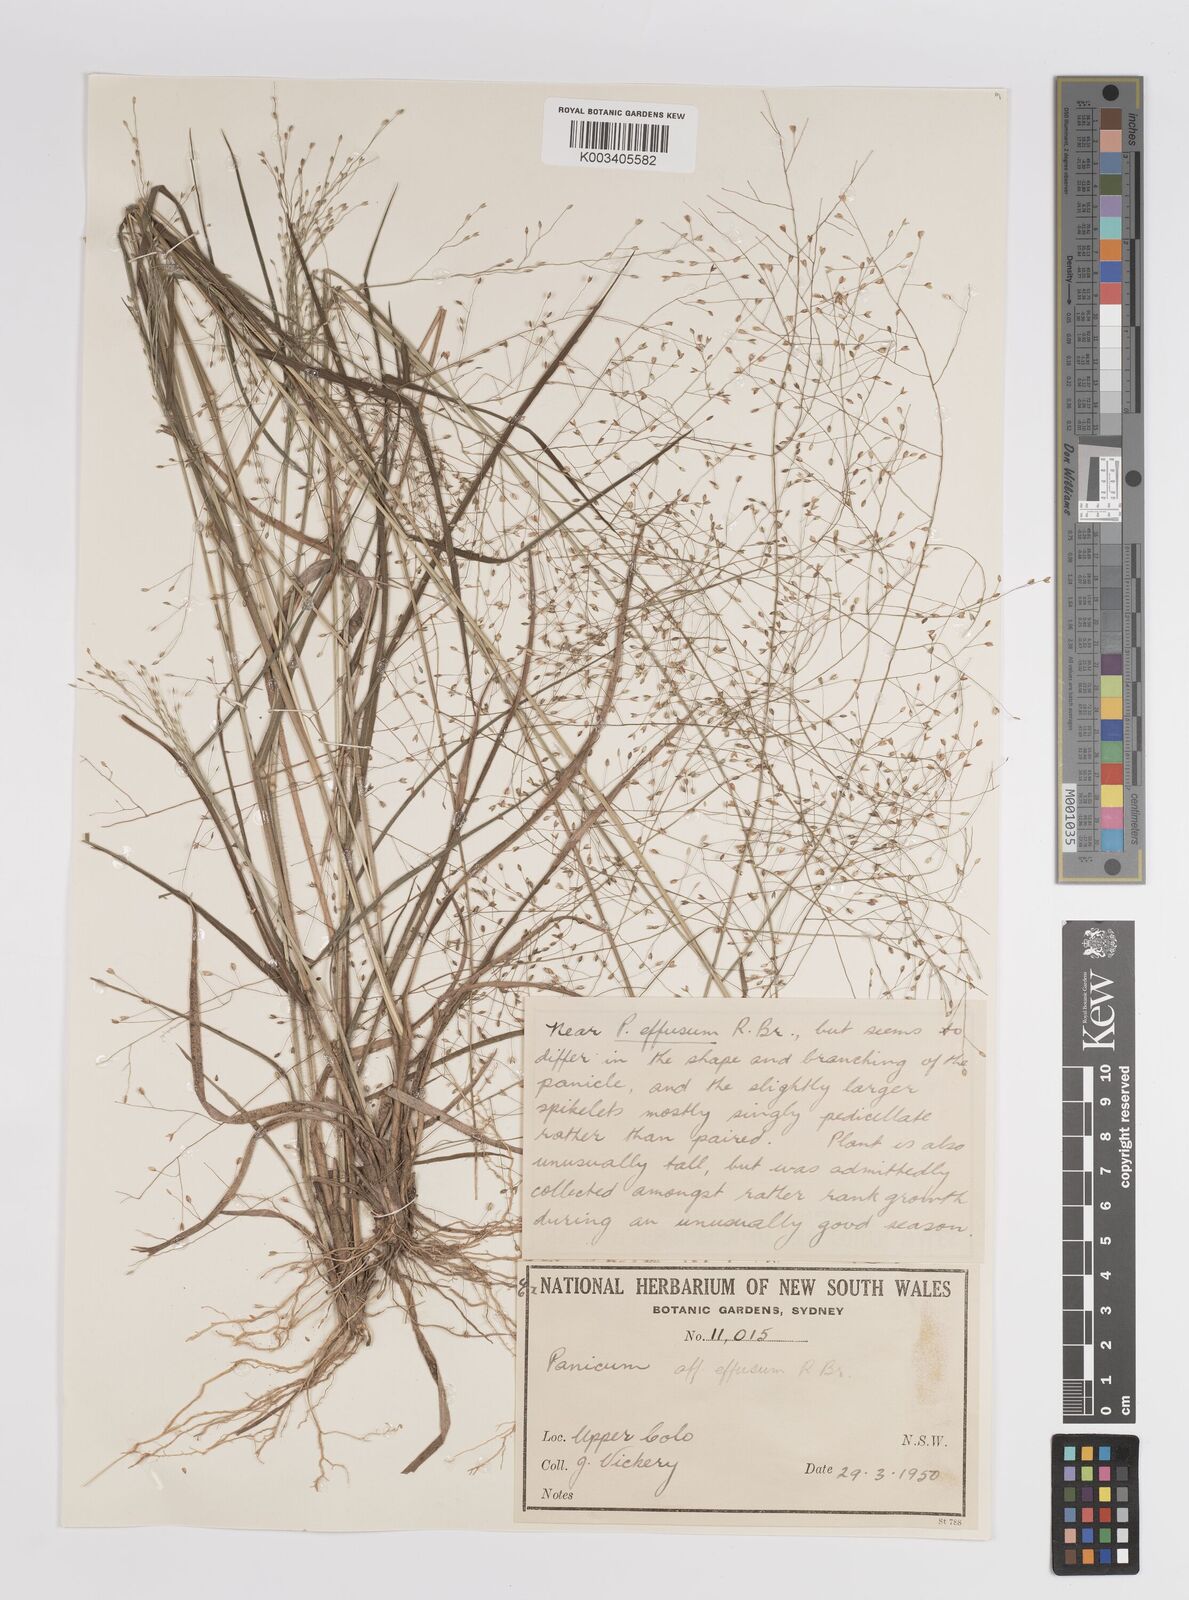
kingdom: Plantae
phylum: Tracheophyta
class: Liliopsida
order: Poales
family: Poaceae
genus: Panicum
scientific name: Panicum
